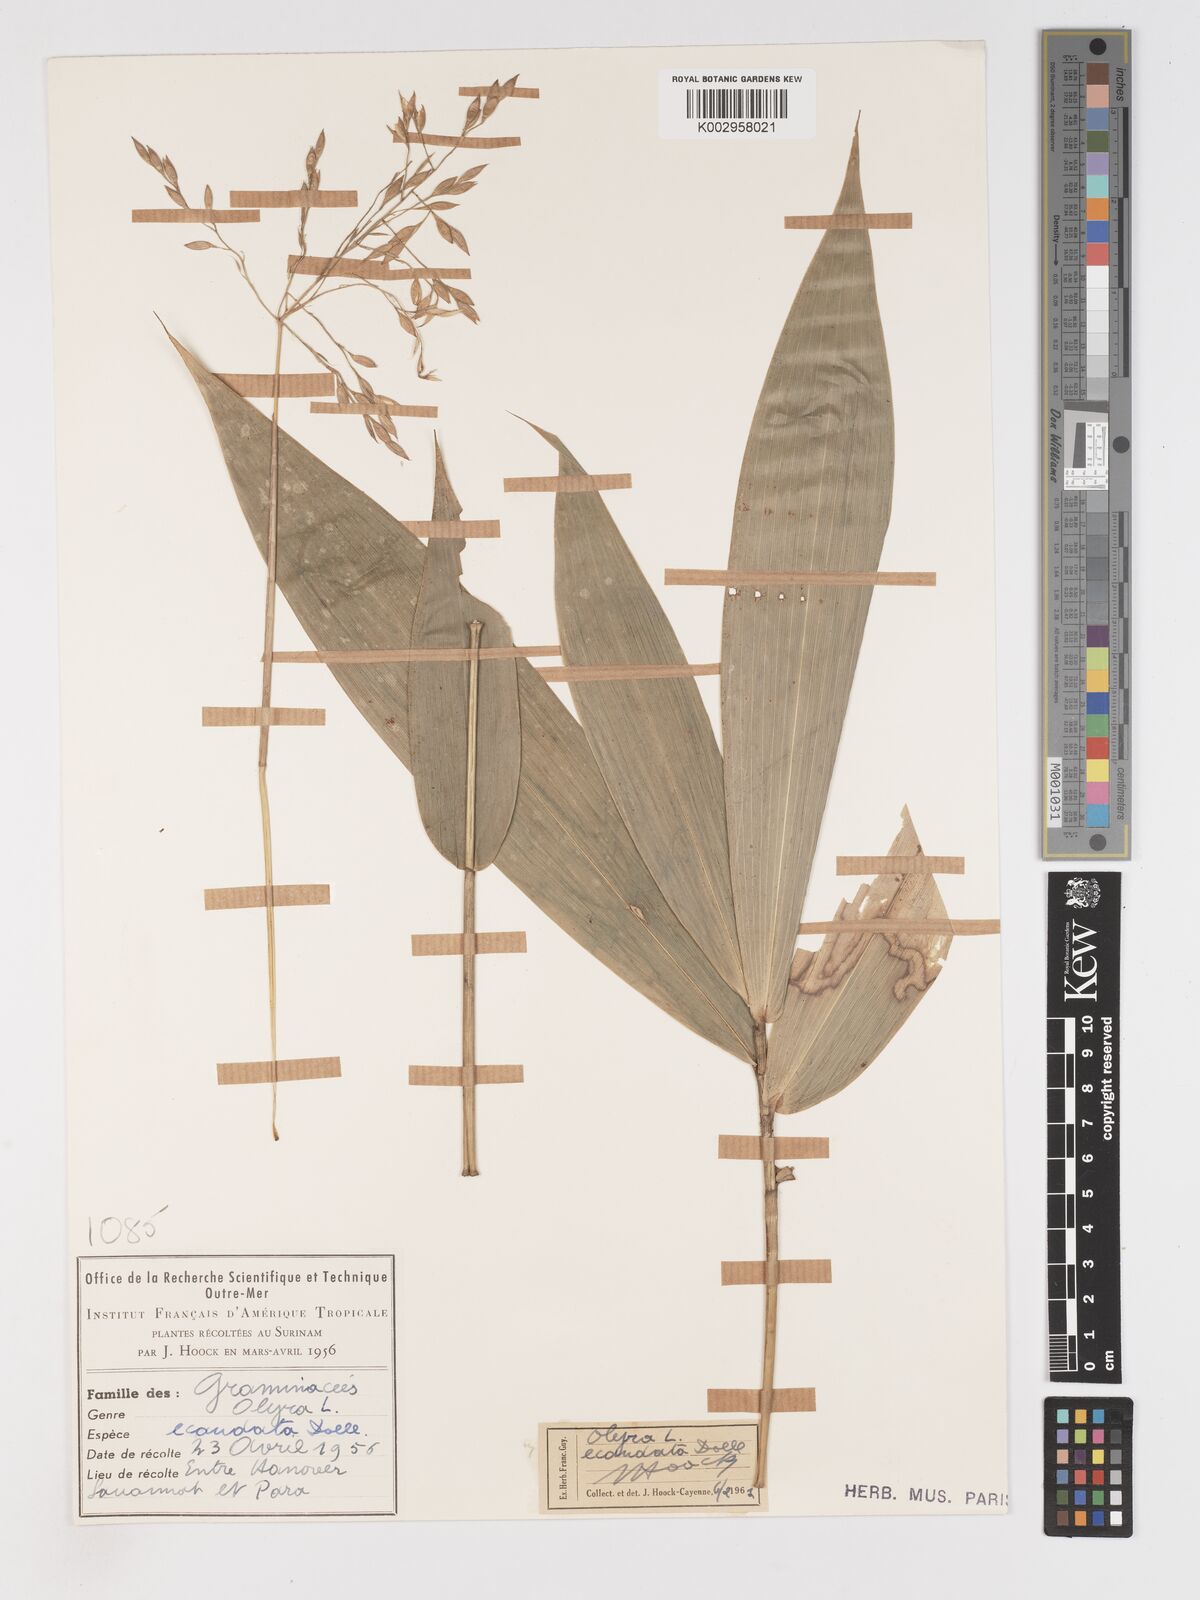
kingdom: Plantae
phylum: Tracheophyta
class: Liliopsida
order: Poales
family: Poaceae
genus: Olyra
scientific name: Olyra ecaudata
